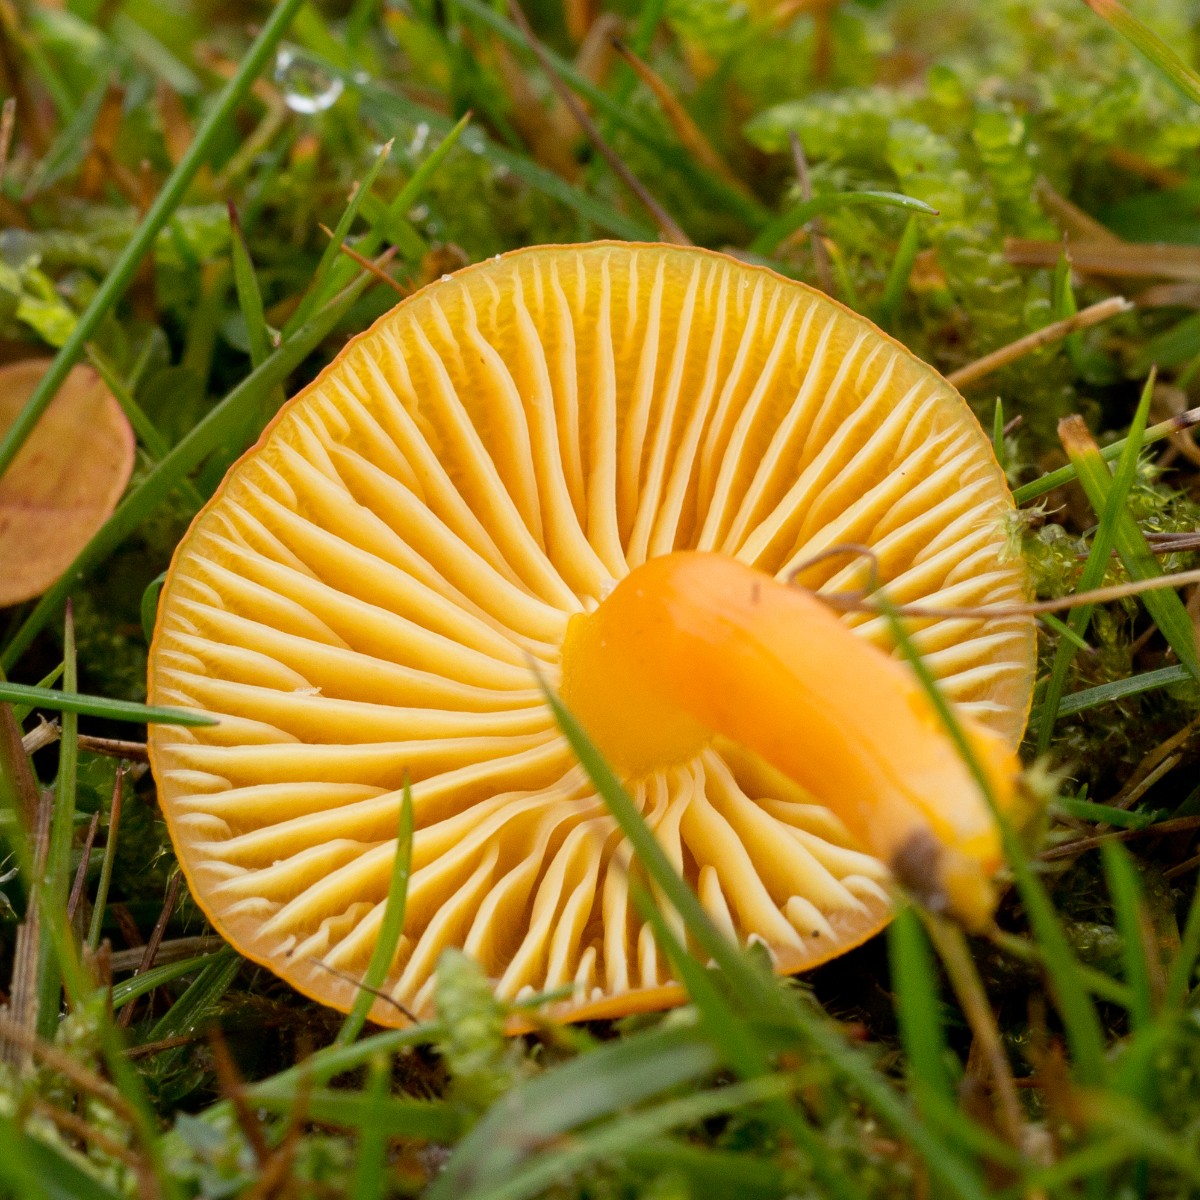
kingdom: Fungi
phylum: Basidiomycota
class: Agaricomycetes
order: Agaricales
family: Hygrophoraceae
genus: Hygrocybe
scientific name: Hygrocybe ceracea
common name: voksgul vokshat
